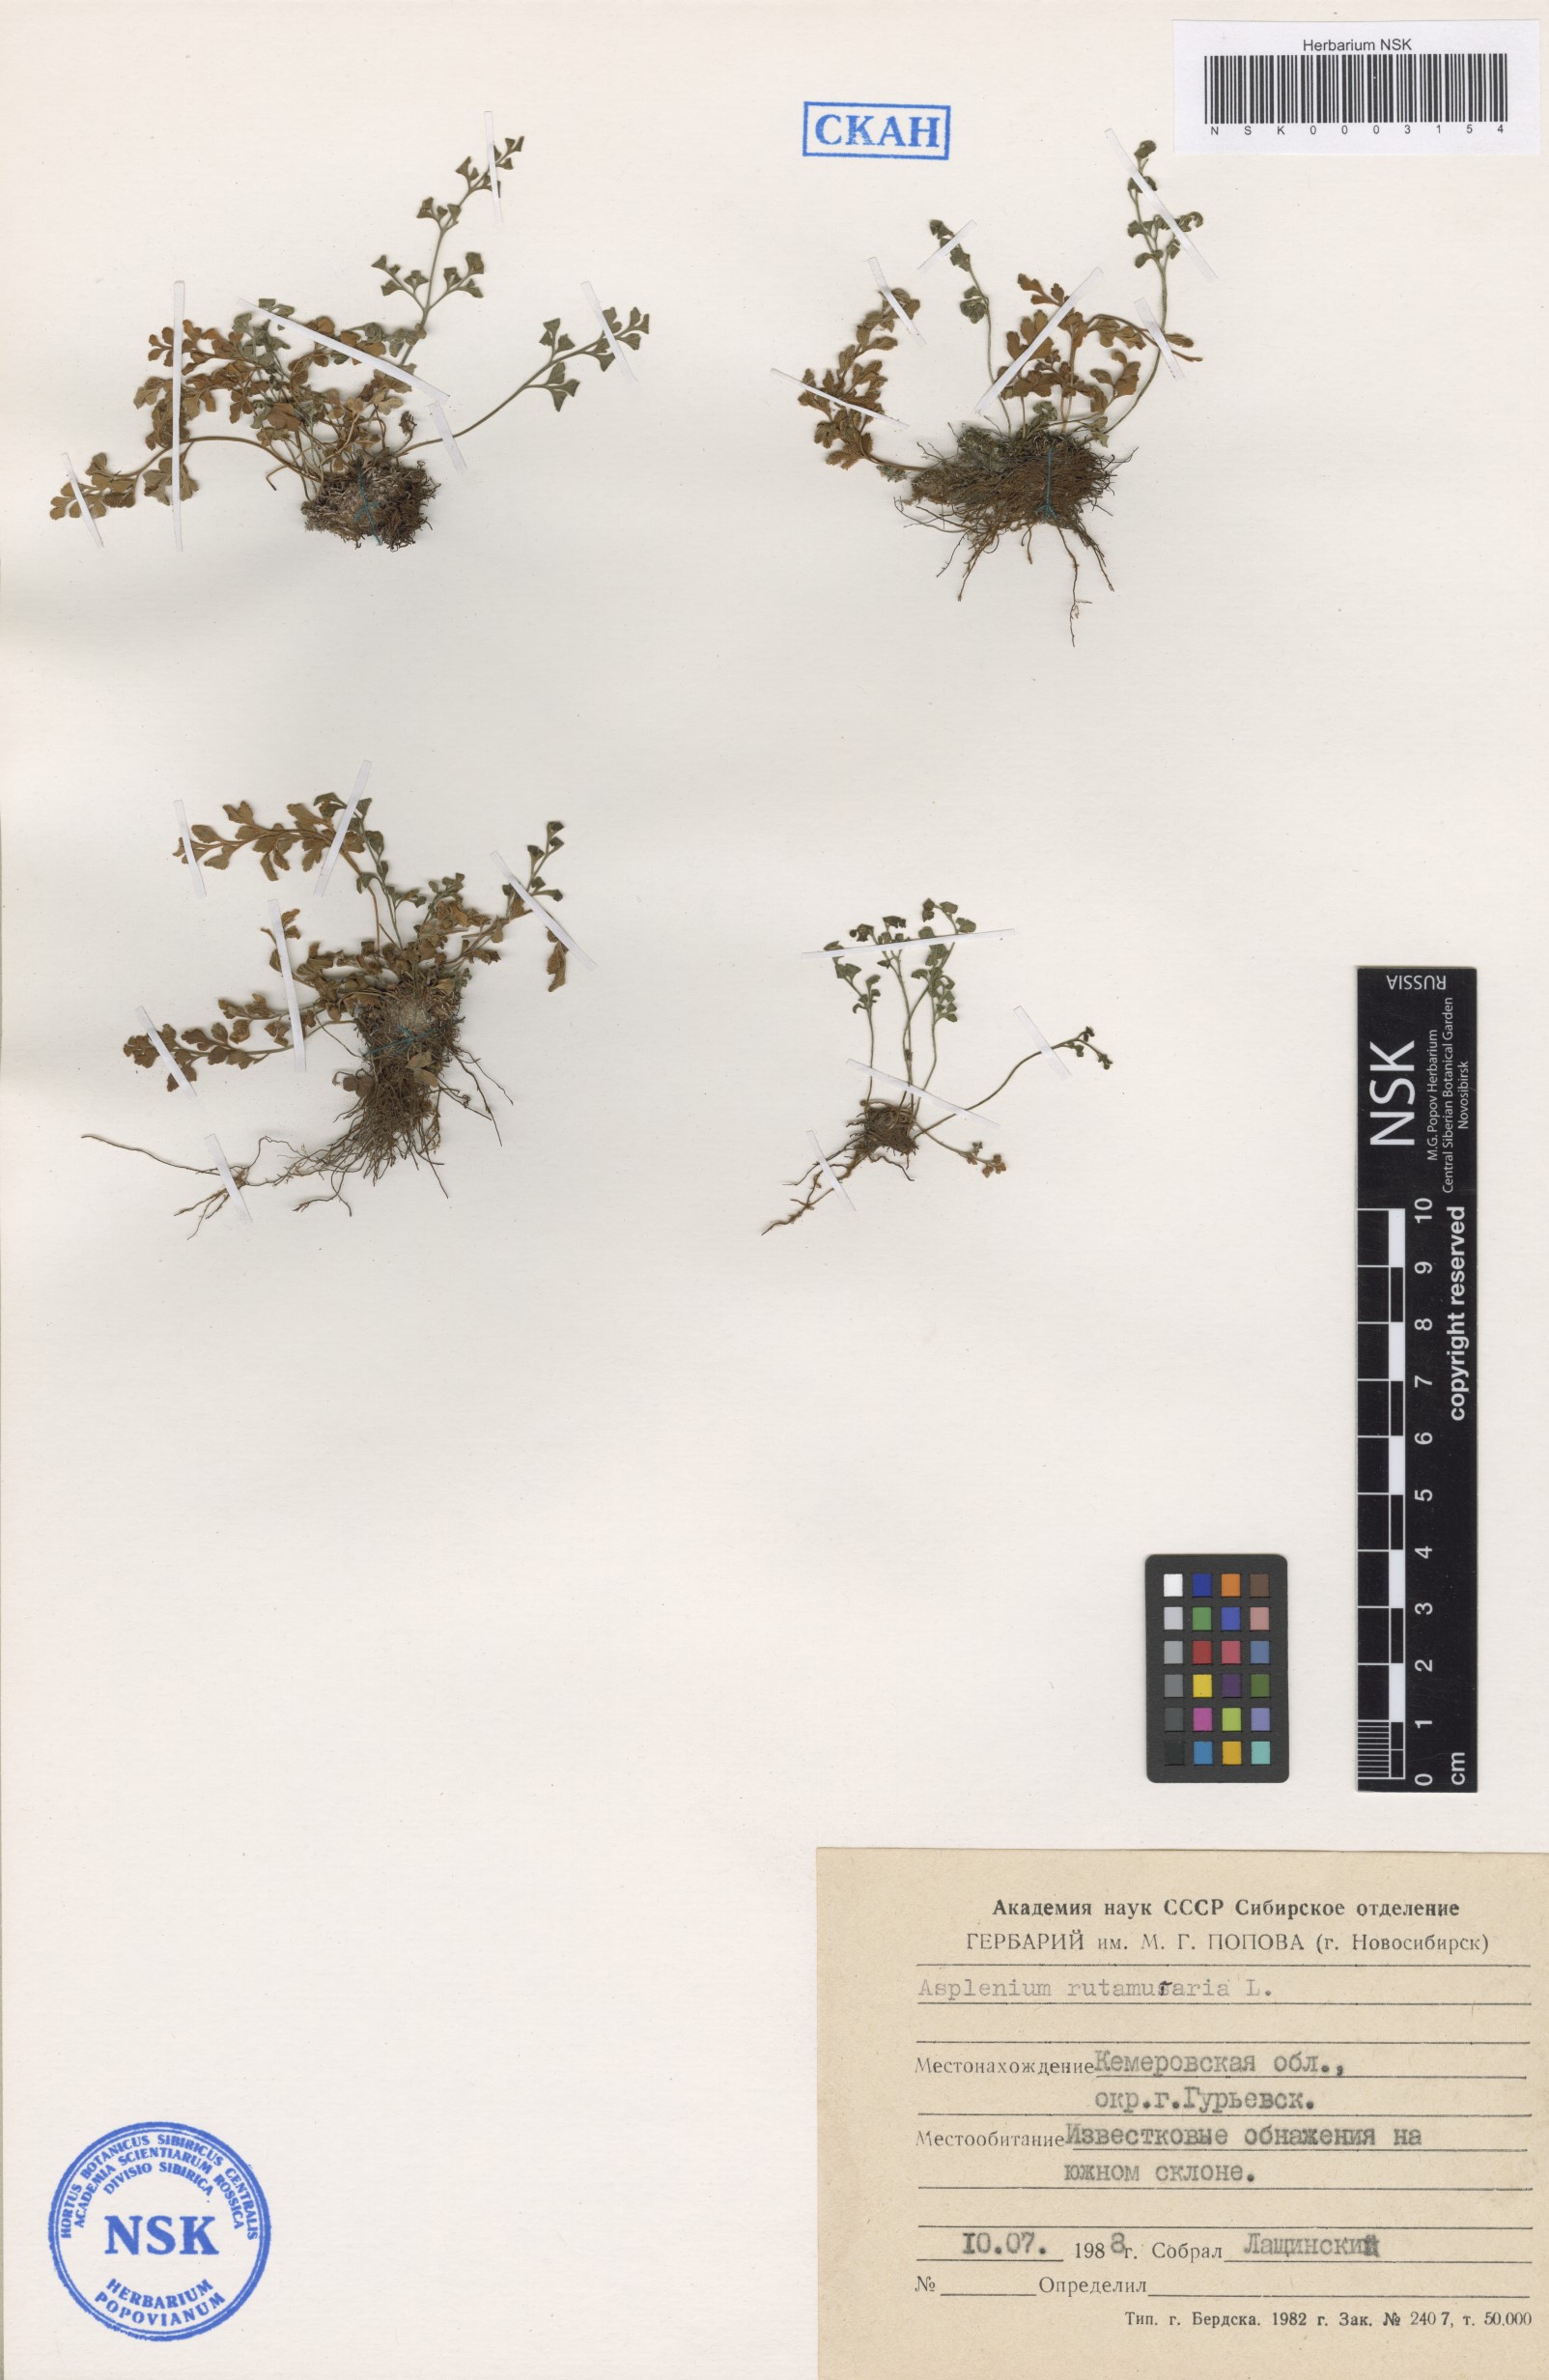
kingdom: Plantae
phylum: Tracheophyta
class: Polypodiopsida
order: Polypodiales
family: Aspleniaceae
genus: Asplenium
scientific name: Asplenium ruta-muraria
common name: Wall-rue
